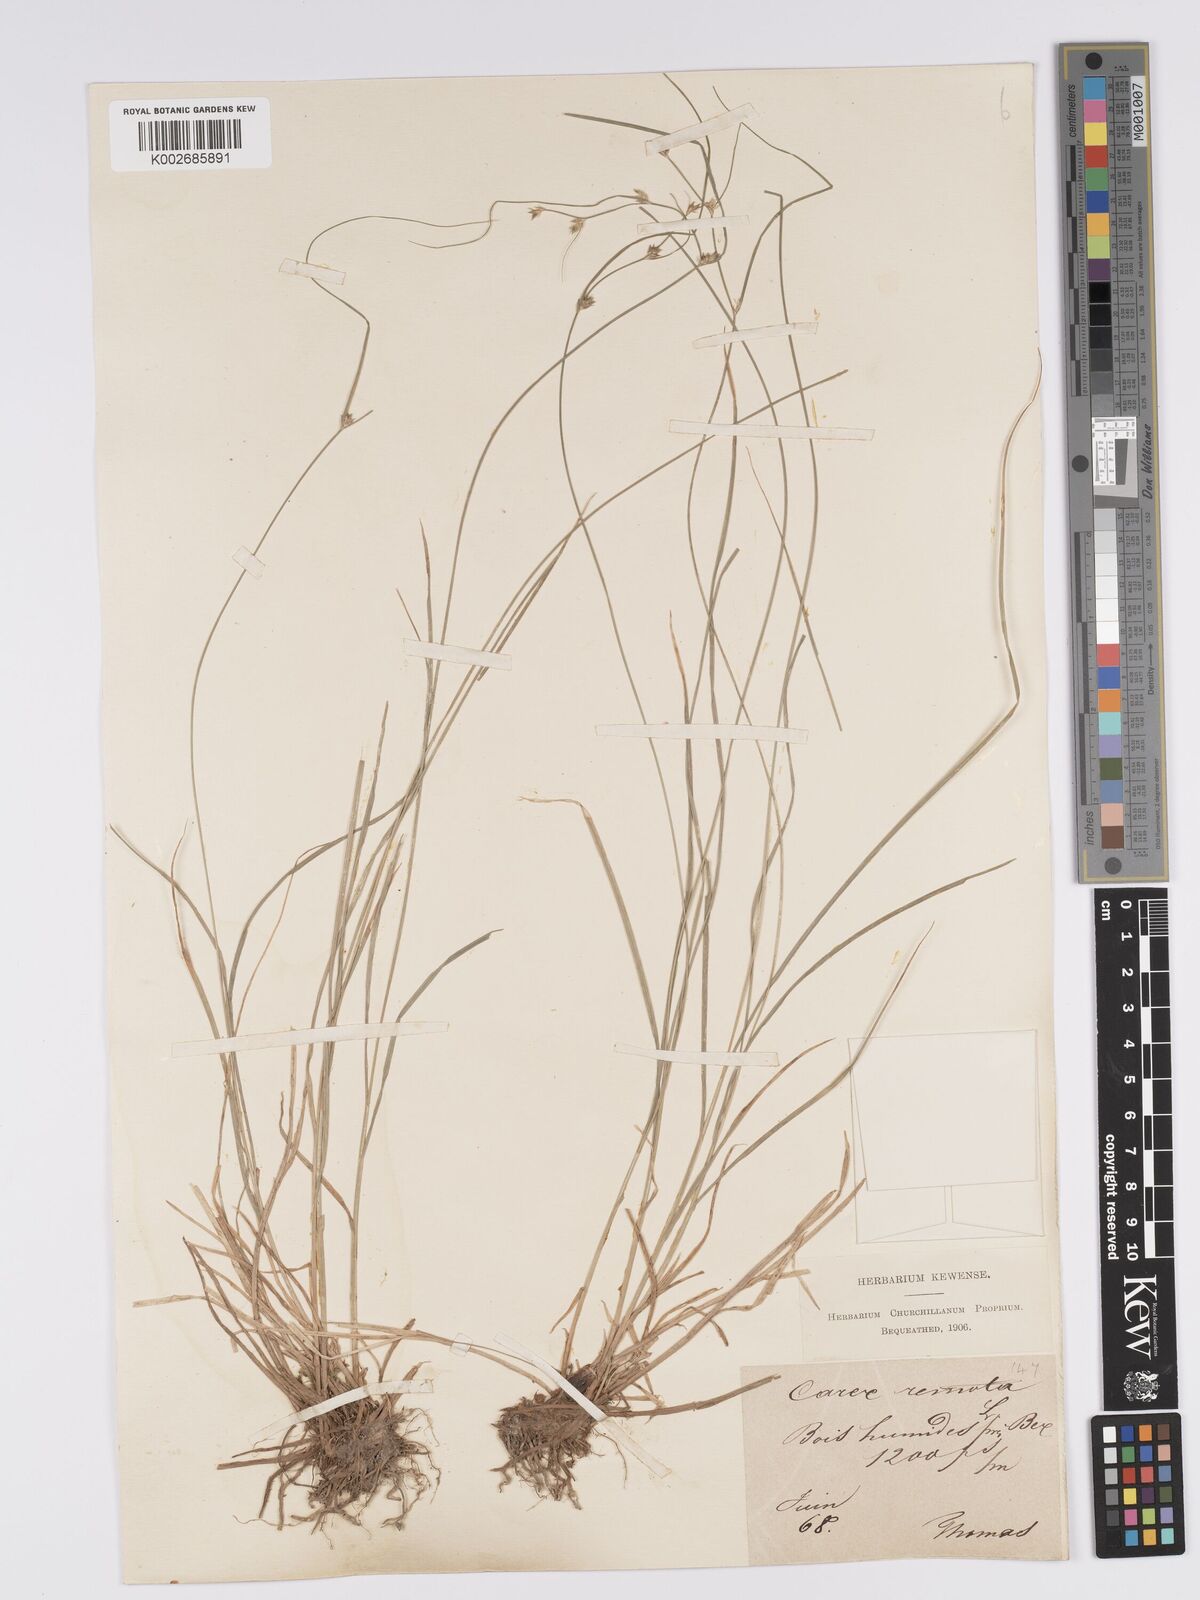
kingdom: Plantae
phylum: Tracheophyta
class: Liliopsida
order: Poales
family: Cyperaceae
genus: Carex
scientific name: Carex remota
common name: Remote sedge
